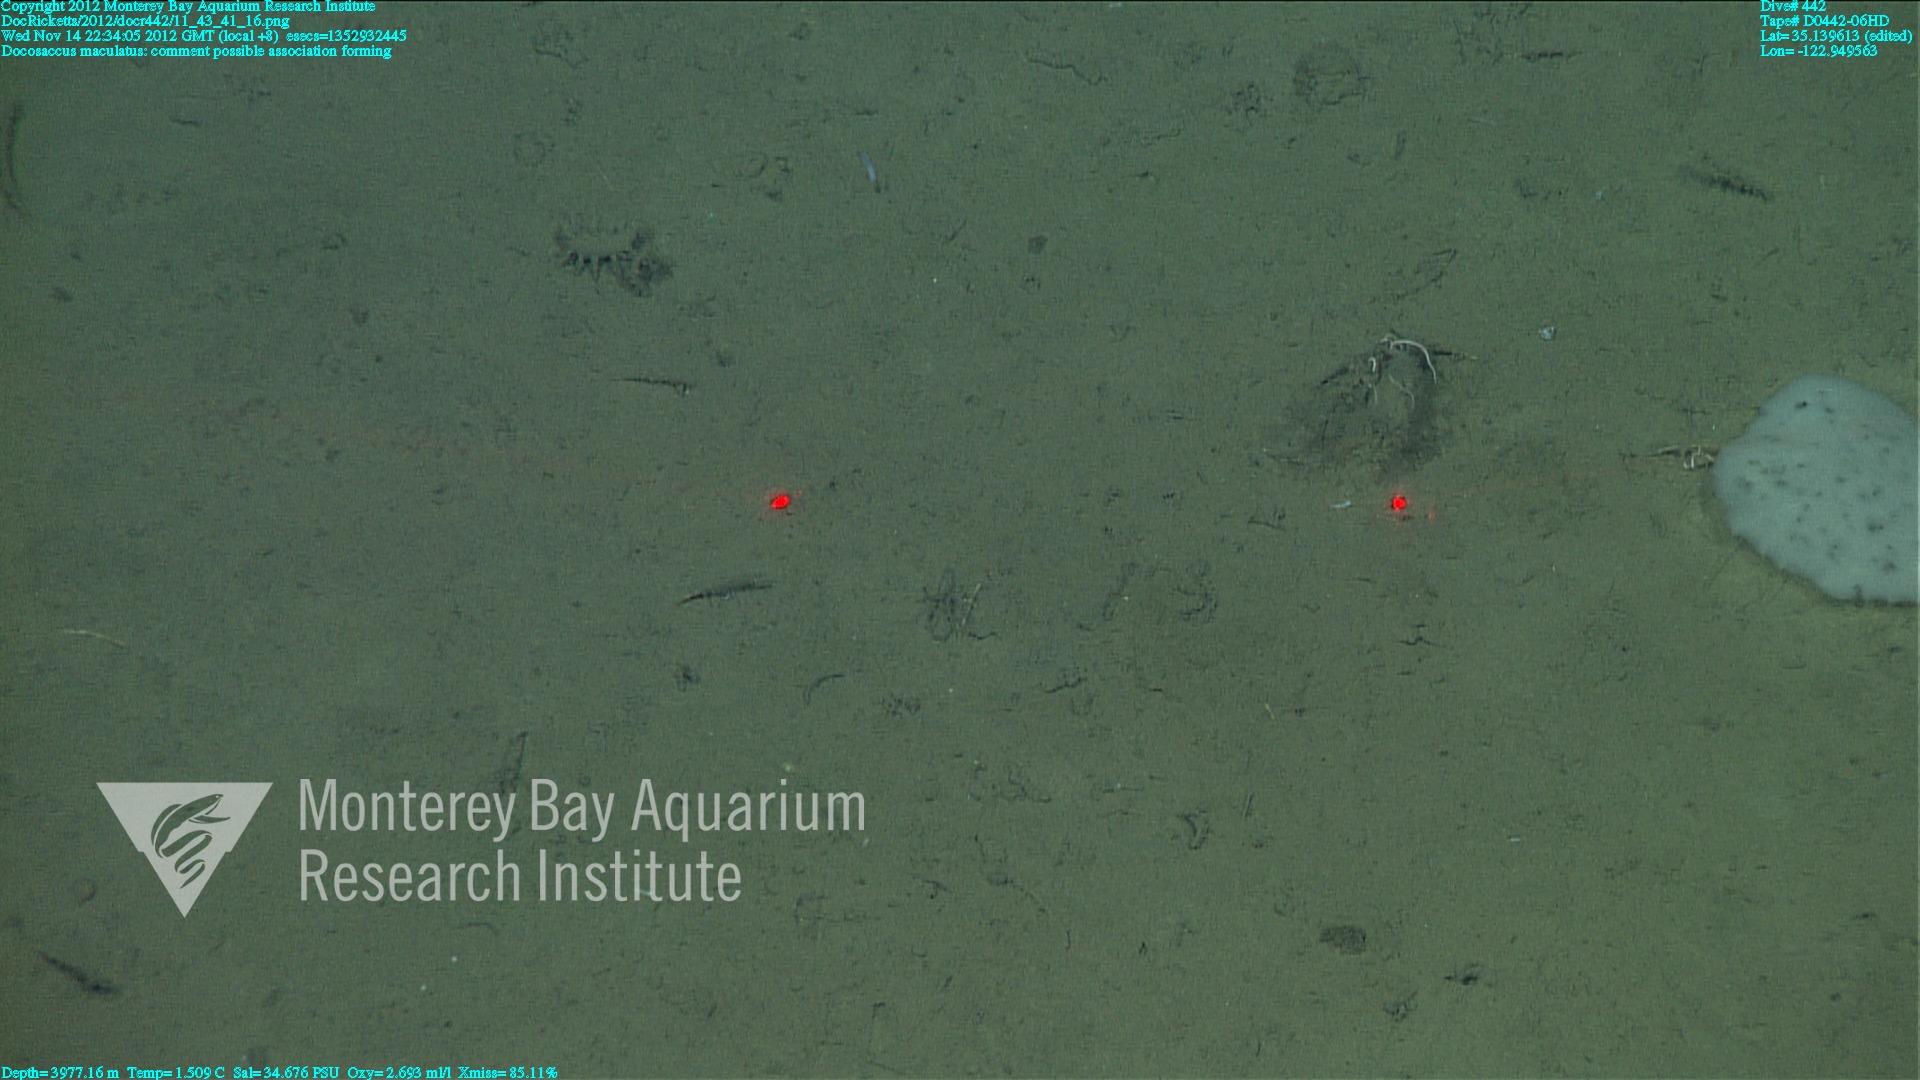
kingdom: Animalia
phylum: Porifera
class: Hexactinellida
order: Lyssacinosida
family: Euplectellidae
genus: Docosaccus
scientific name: Docosaccus maculatus
